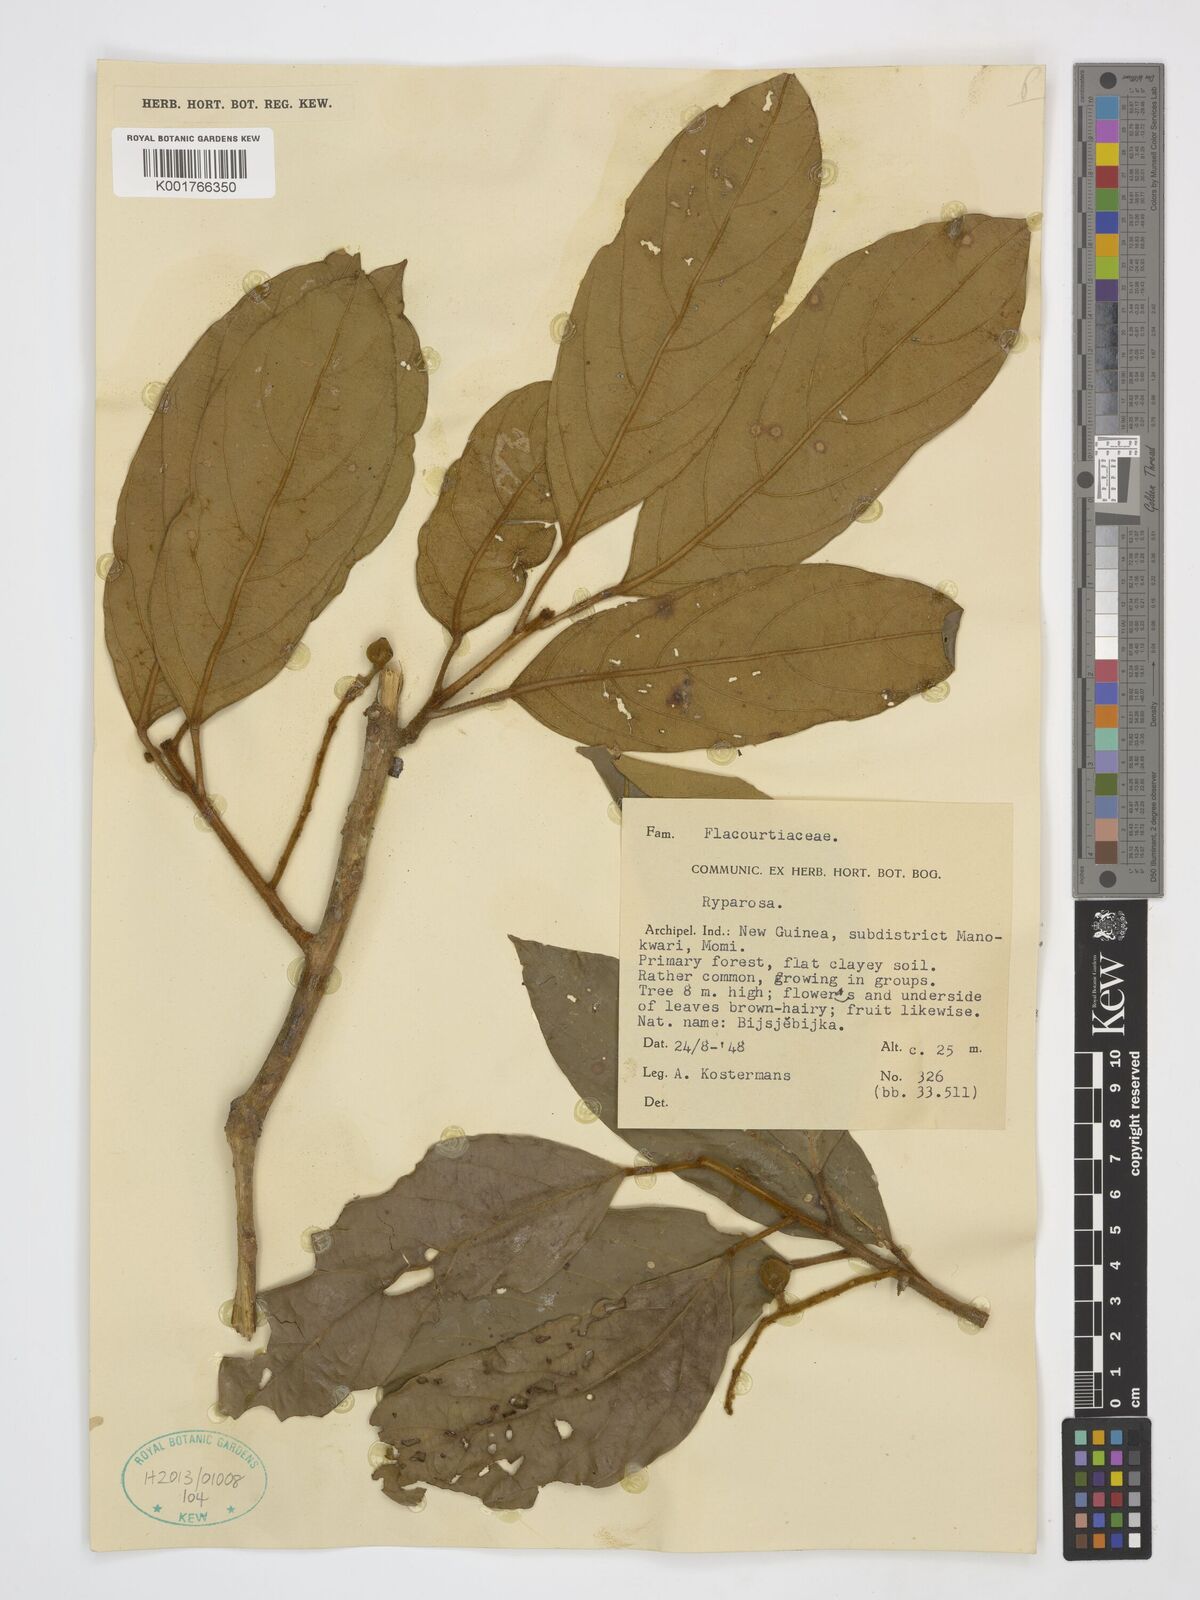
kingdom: Plantae
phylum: Tracheophyta
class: Magnoliopsida
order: Malpighiales
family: Achariaceae
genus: Ryparosa
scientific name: Ryparosa
